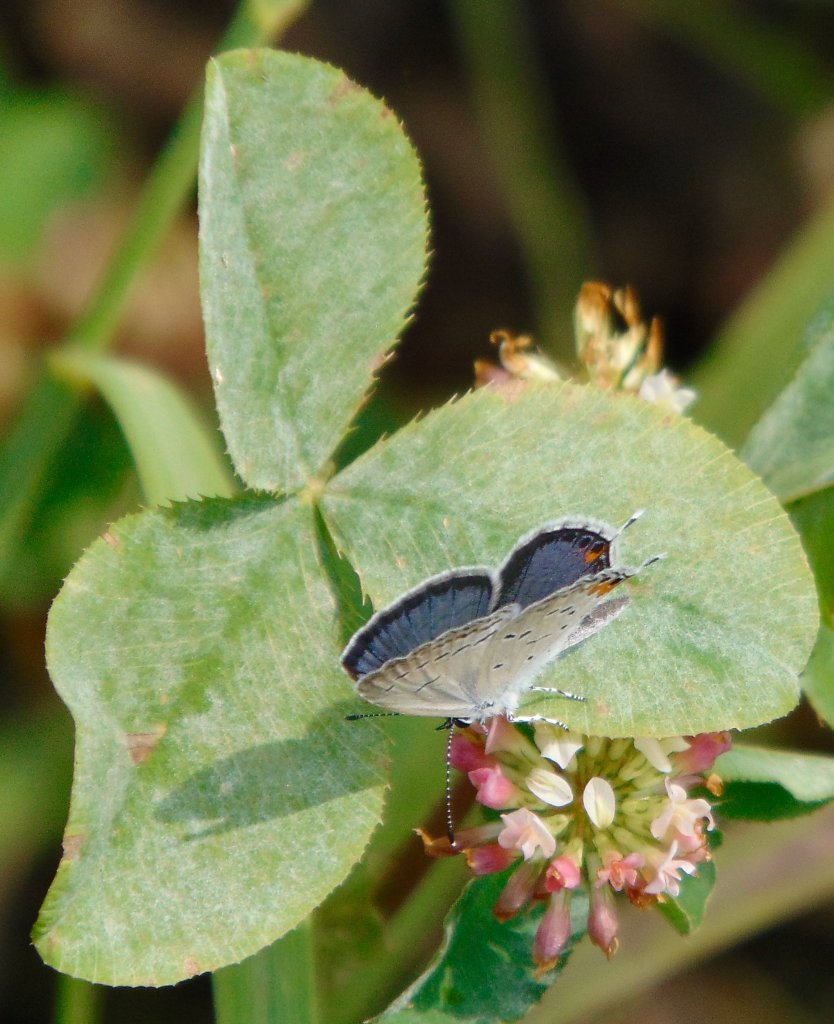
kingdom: Animalia
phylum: Arthropoda
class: Insecta
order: Lepidoptera
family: Lycaenidae
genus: Elkalyce
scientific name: Elkalyce comyntas
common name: Eastern Tailed-Blue
